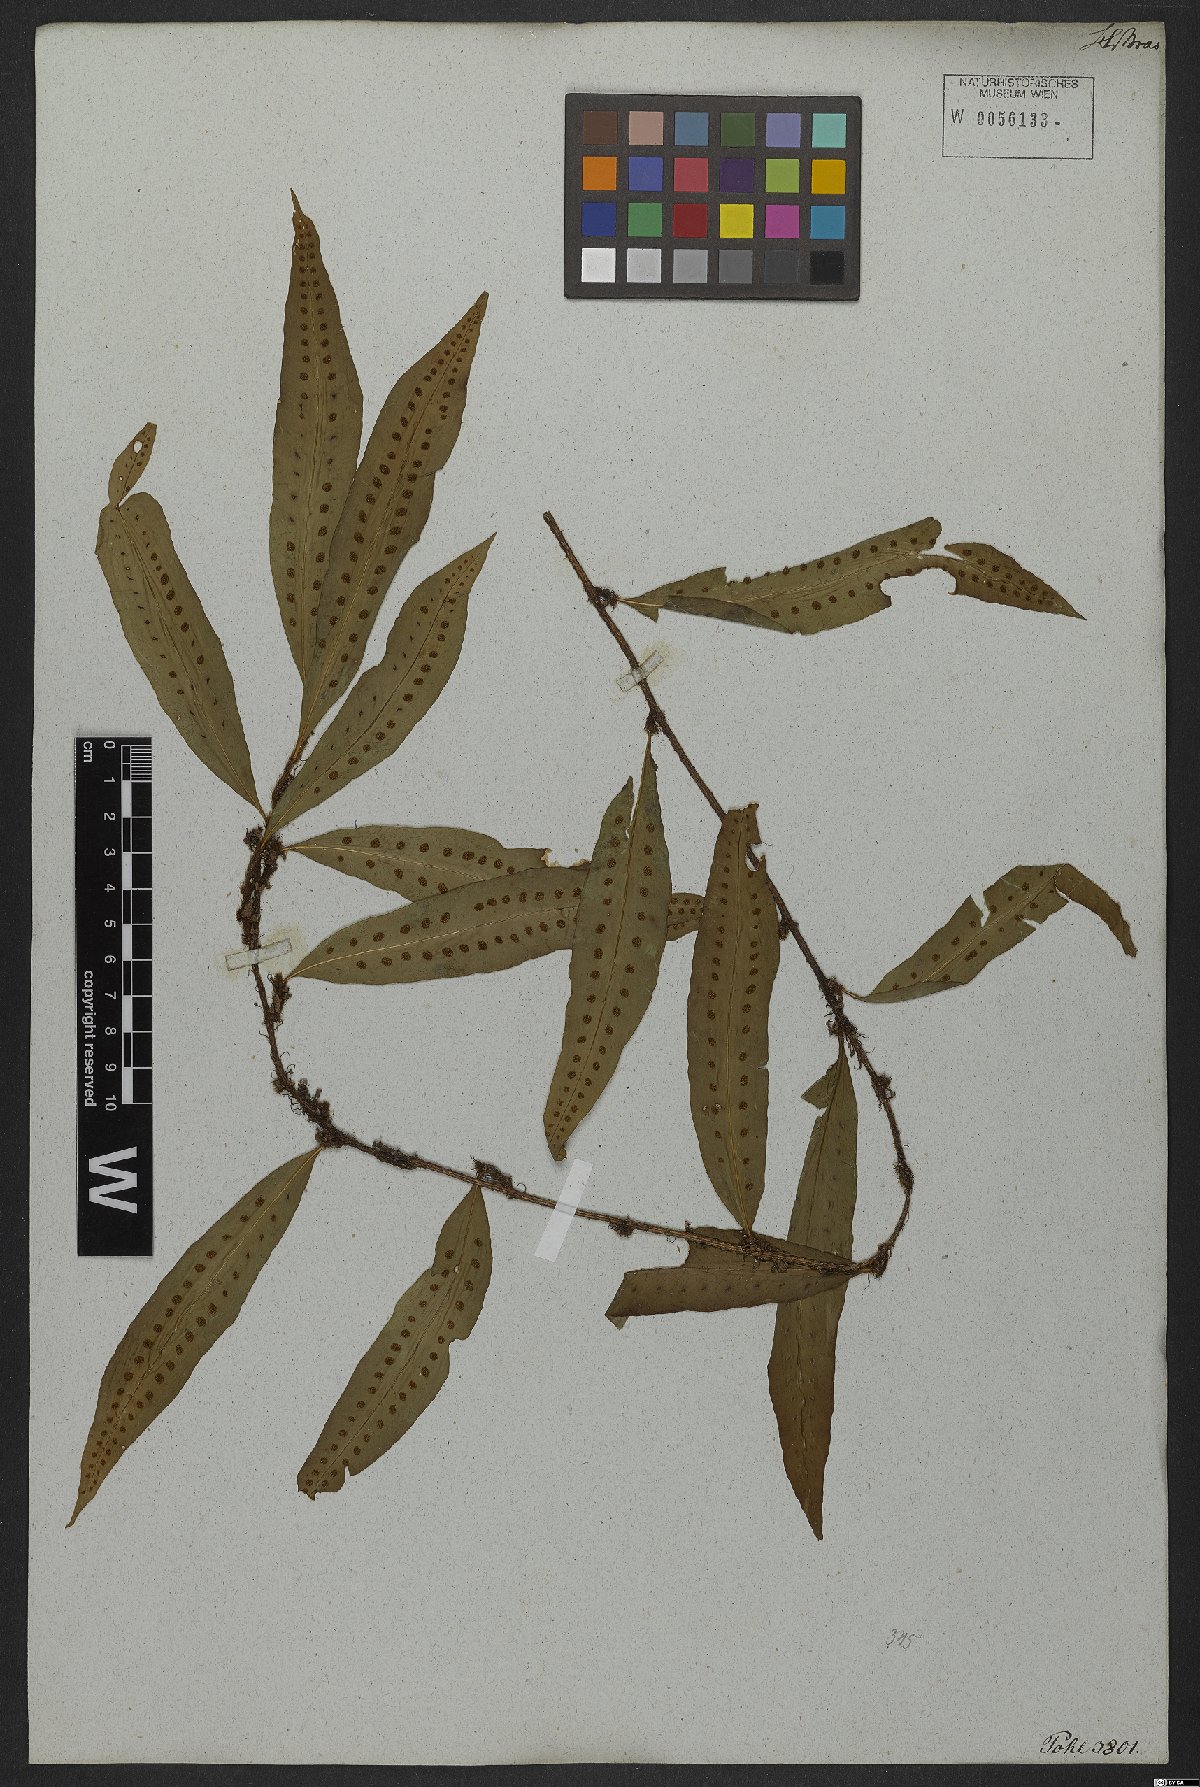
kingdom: Plantae
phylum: Tracheophyta
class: Polypodiopsida
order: Polypodiales
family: Polypodiaceae
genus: Microgramma
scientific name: Microgramma persicariifolia
